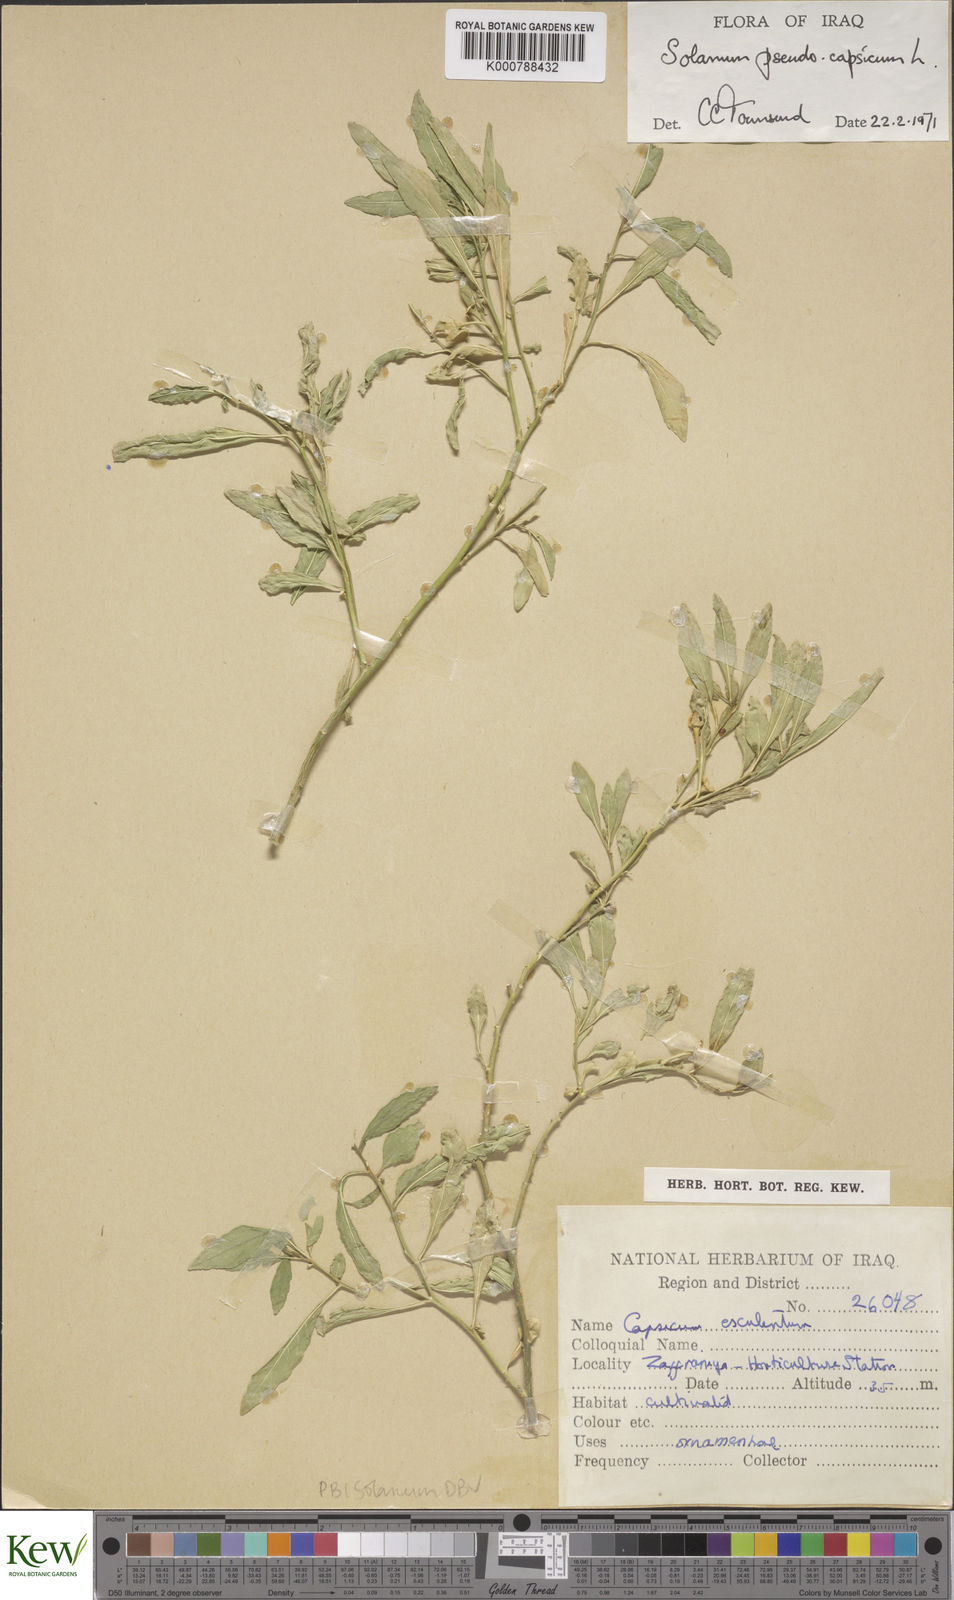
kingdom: Plantae
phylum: Tracheophyta
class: Magnoliopsida
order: Solanales
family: Solanaceae
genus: Solanum
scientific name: Solanum pseudocapsicum
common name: Jerusalem cherry
